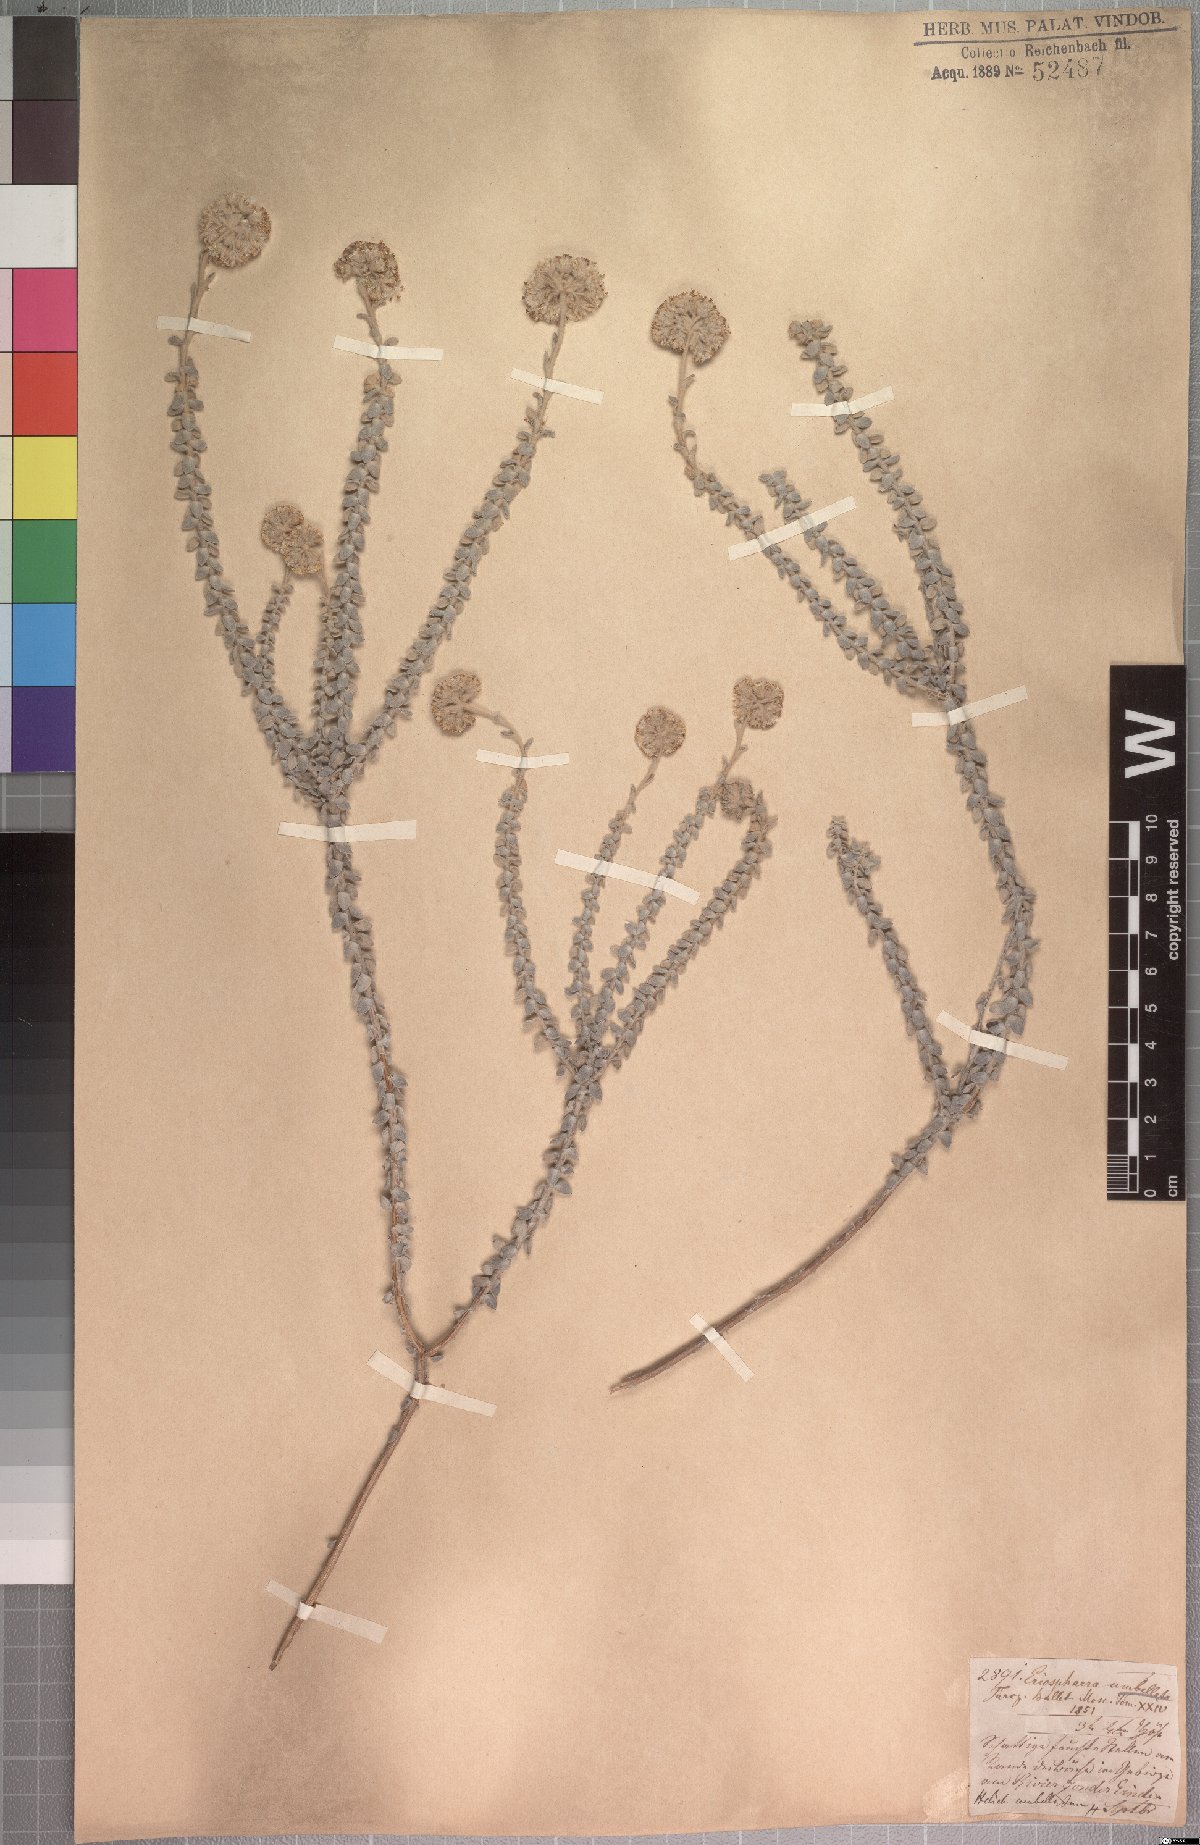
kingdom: Plantae
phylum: Tracheophyta
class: Magnoliopsida
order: Asterales
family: Asteraceae
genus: Helichrysum
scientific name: Helichrysum marifolium
